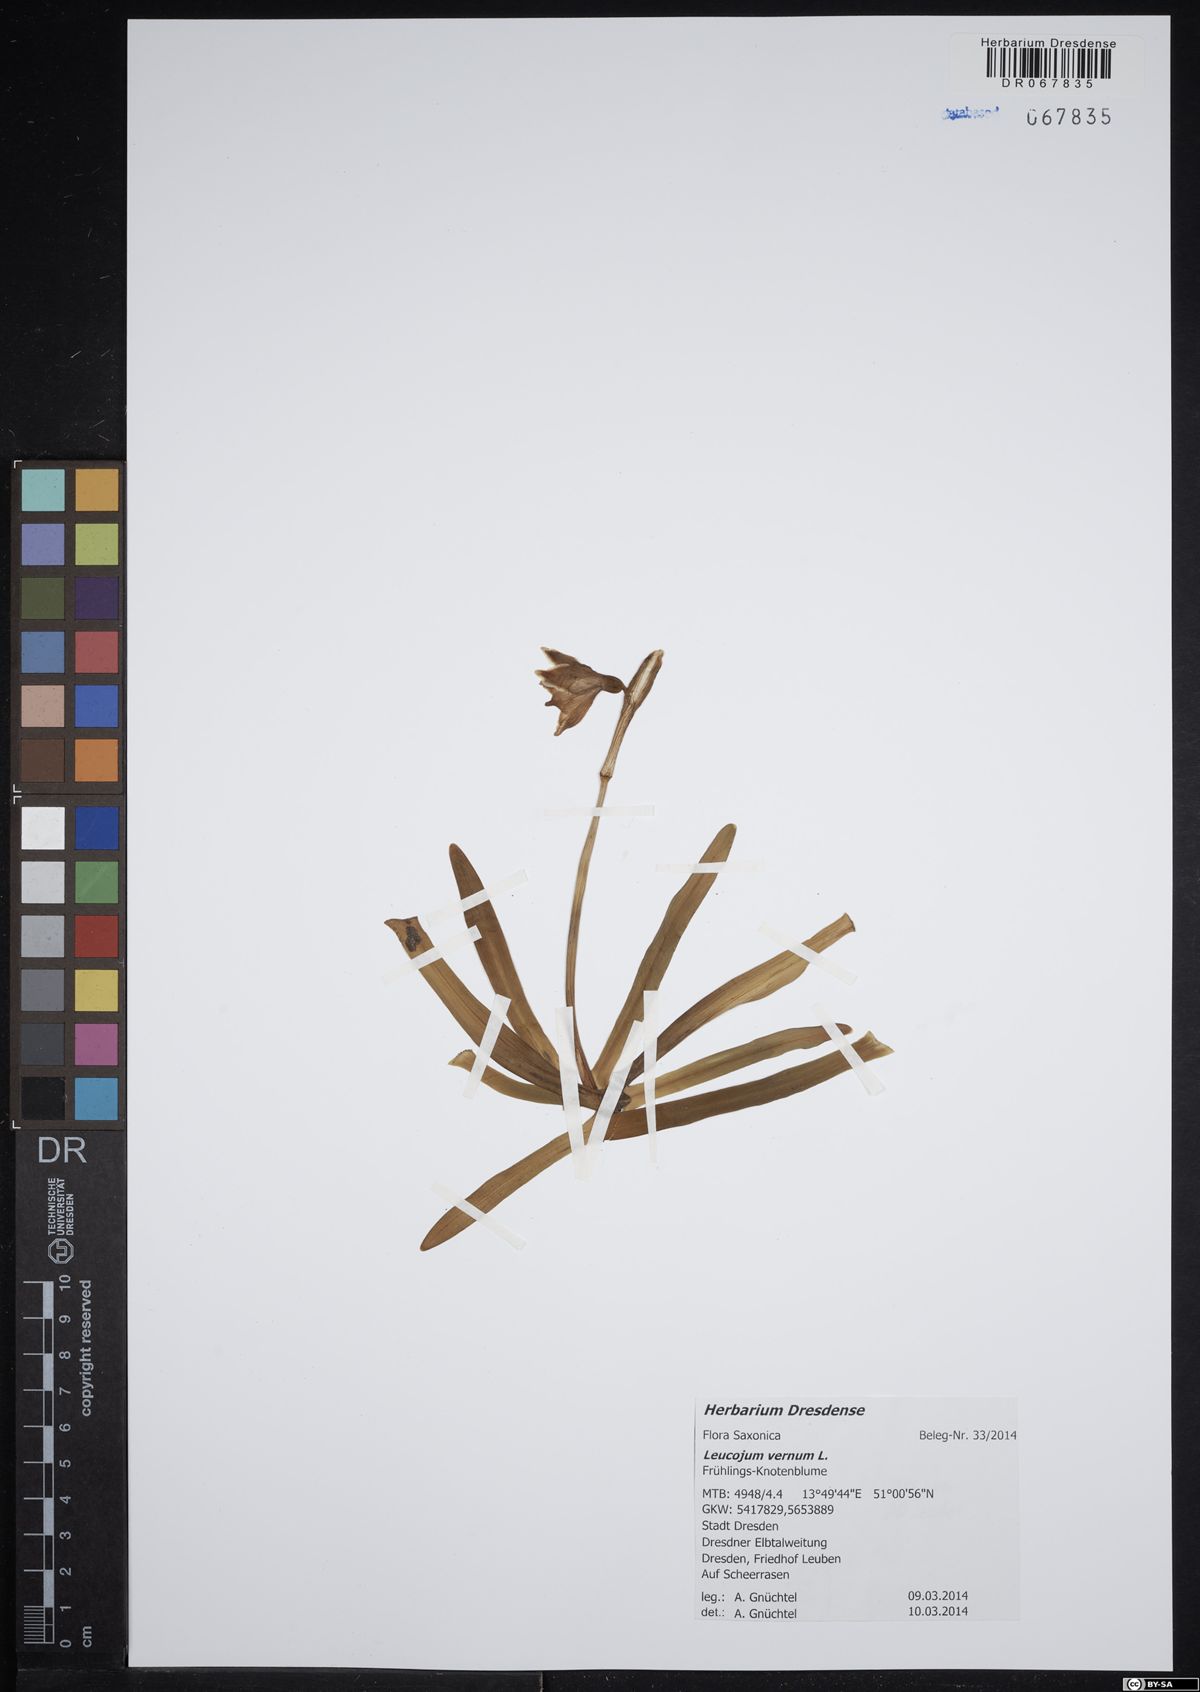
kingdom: Plantae
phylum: Tracheophyta
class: Liliopsida
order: Asparagales
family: Amaryllidaceae
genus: Leucojum
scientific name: Leucojum vernum
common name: Spring snowflake
